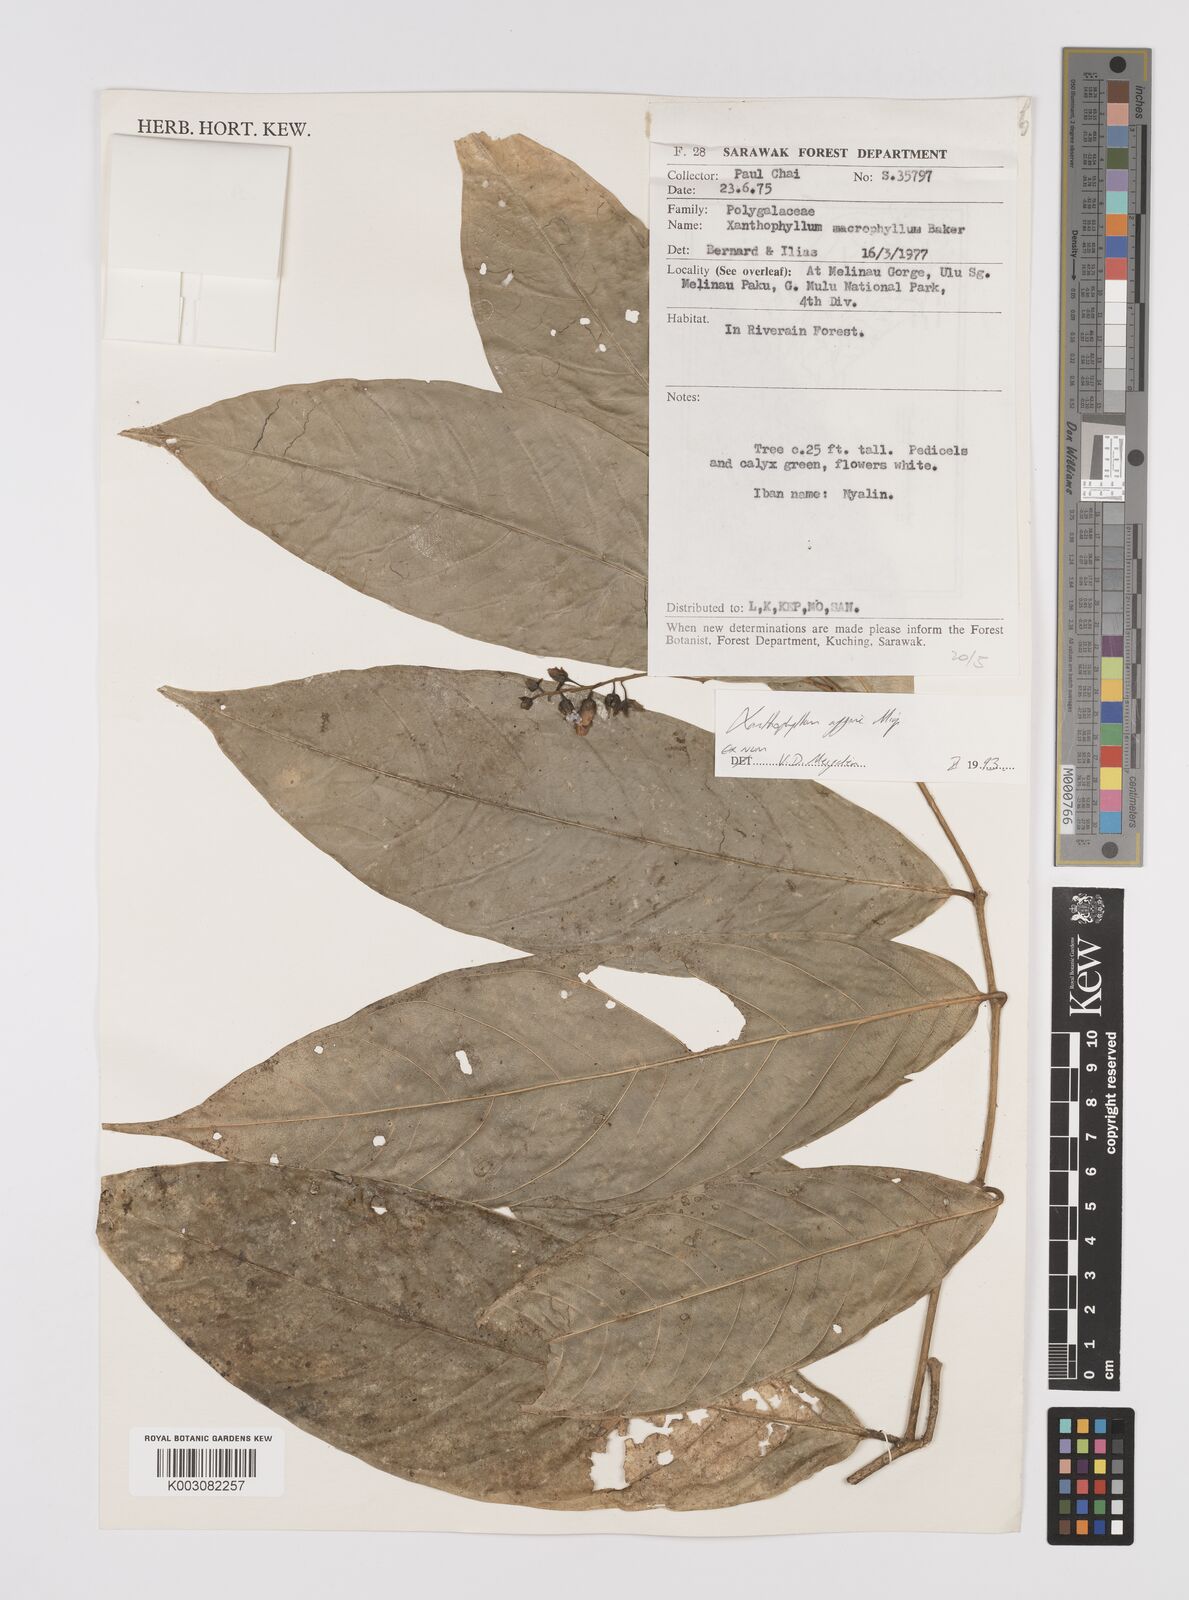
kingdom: Plantae
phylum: Tracheophyta
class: Magnoliopsida
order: Fabales
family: Polygalaceae
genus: Xanthophyllum
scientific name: Xanthophyllum flavescens
